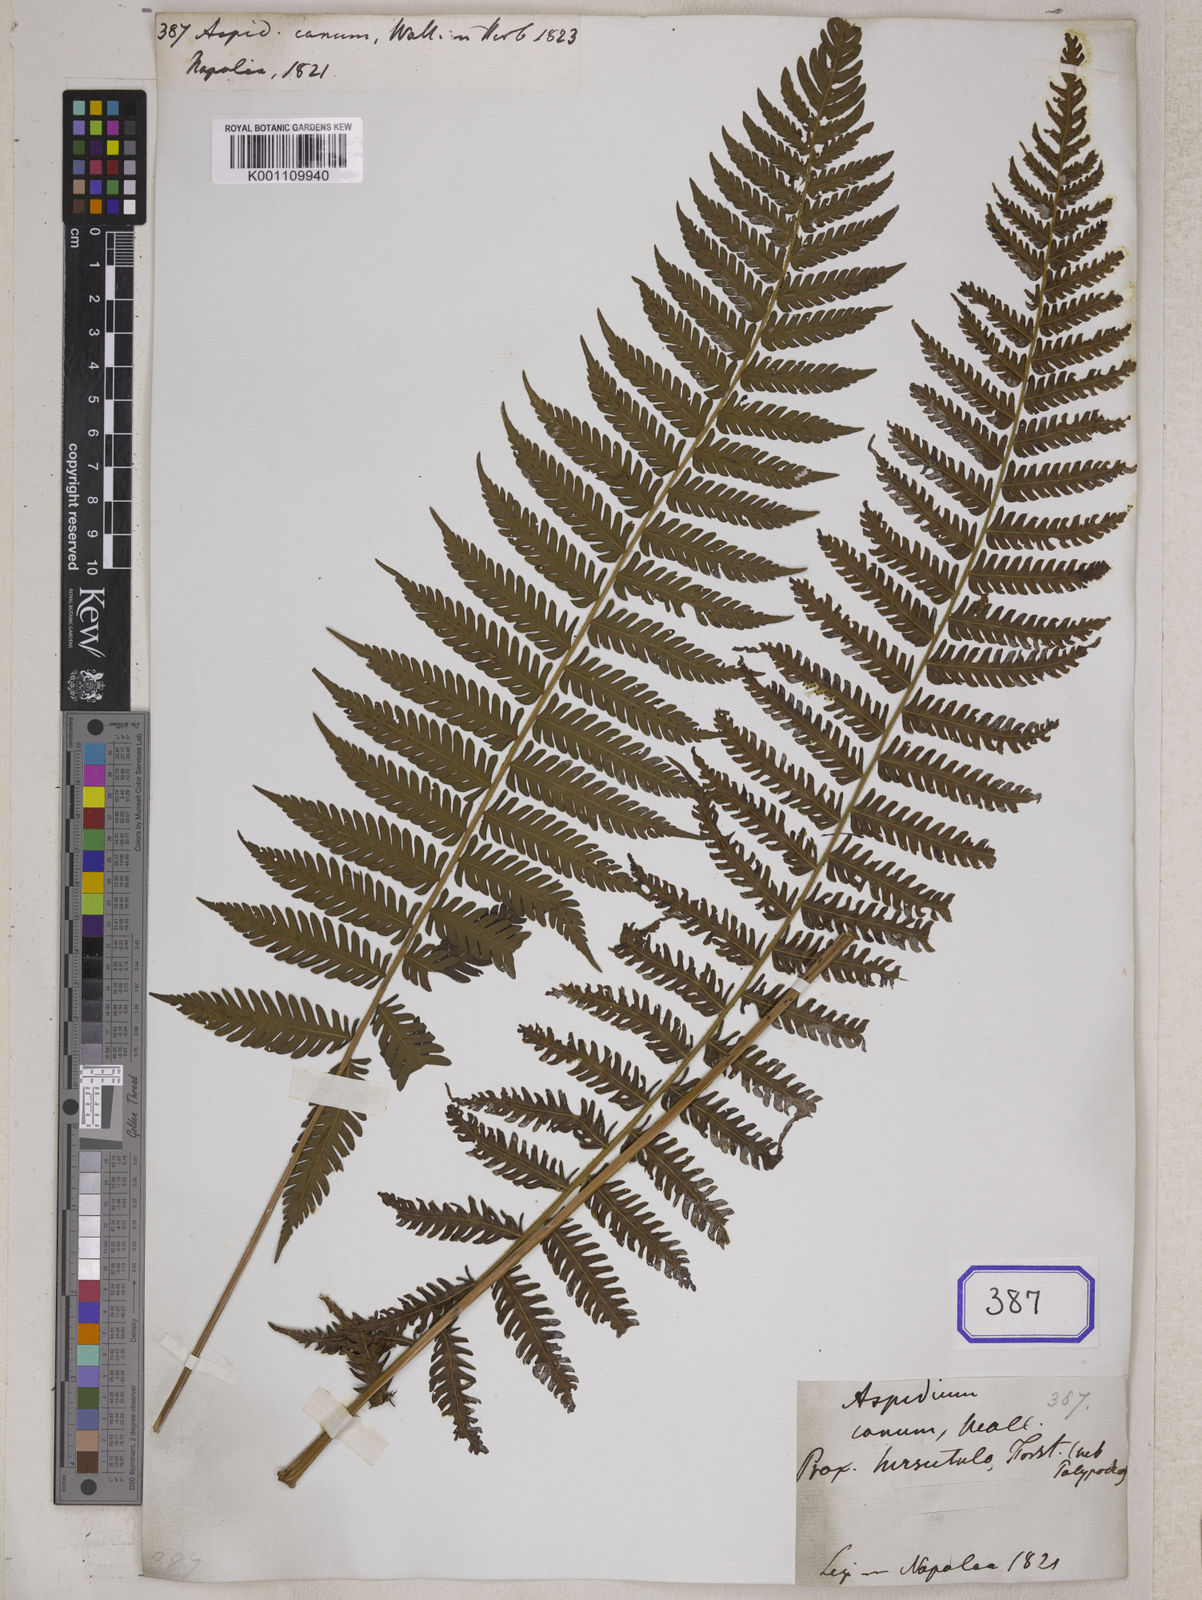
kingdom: Plantae
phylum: Tracheophyta
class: Polypodiopsida
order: Polypodiales
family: Thelypteridaceae
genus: Trigonospora
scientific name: Trigonospora calcarata
